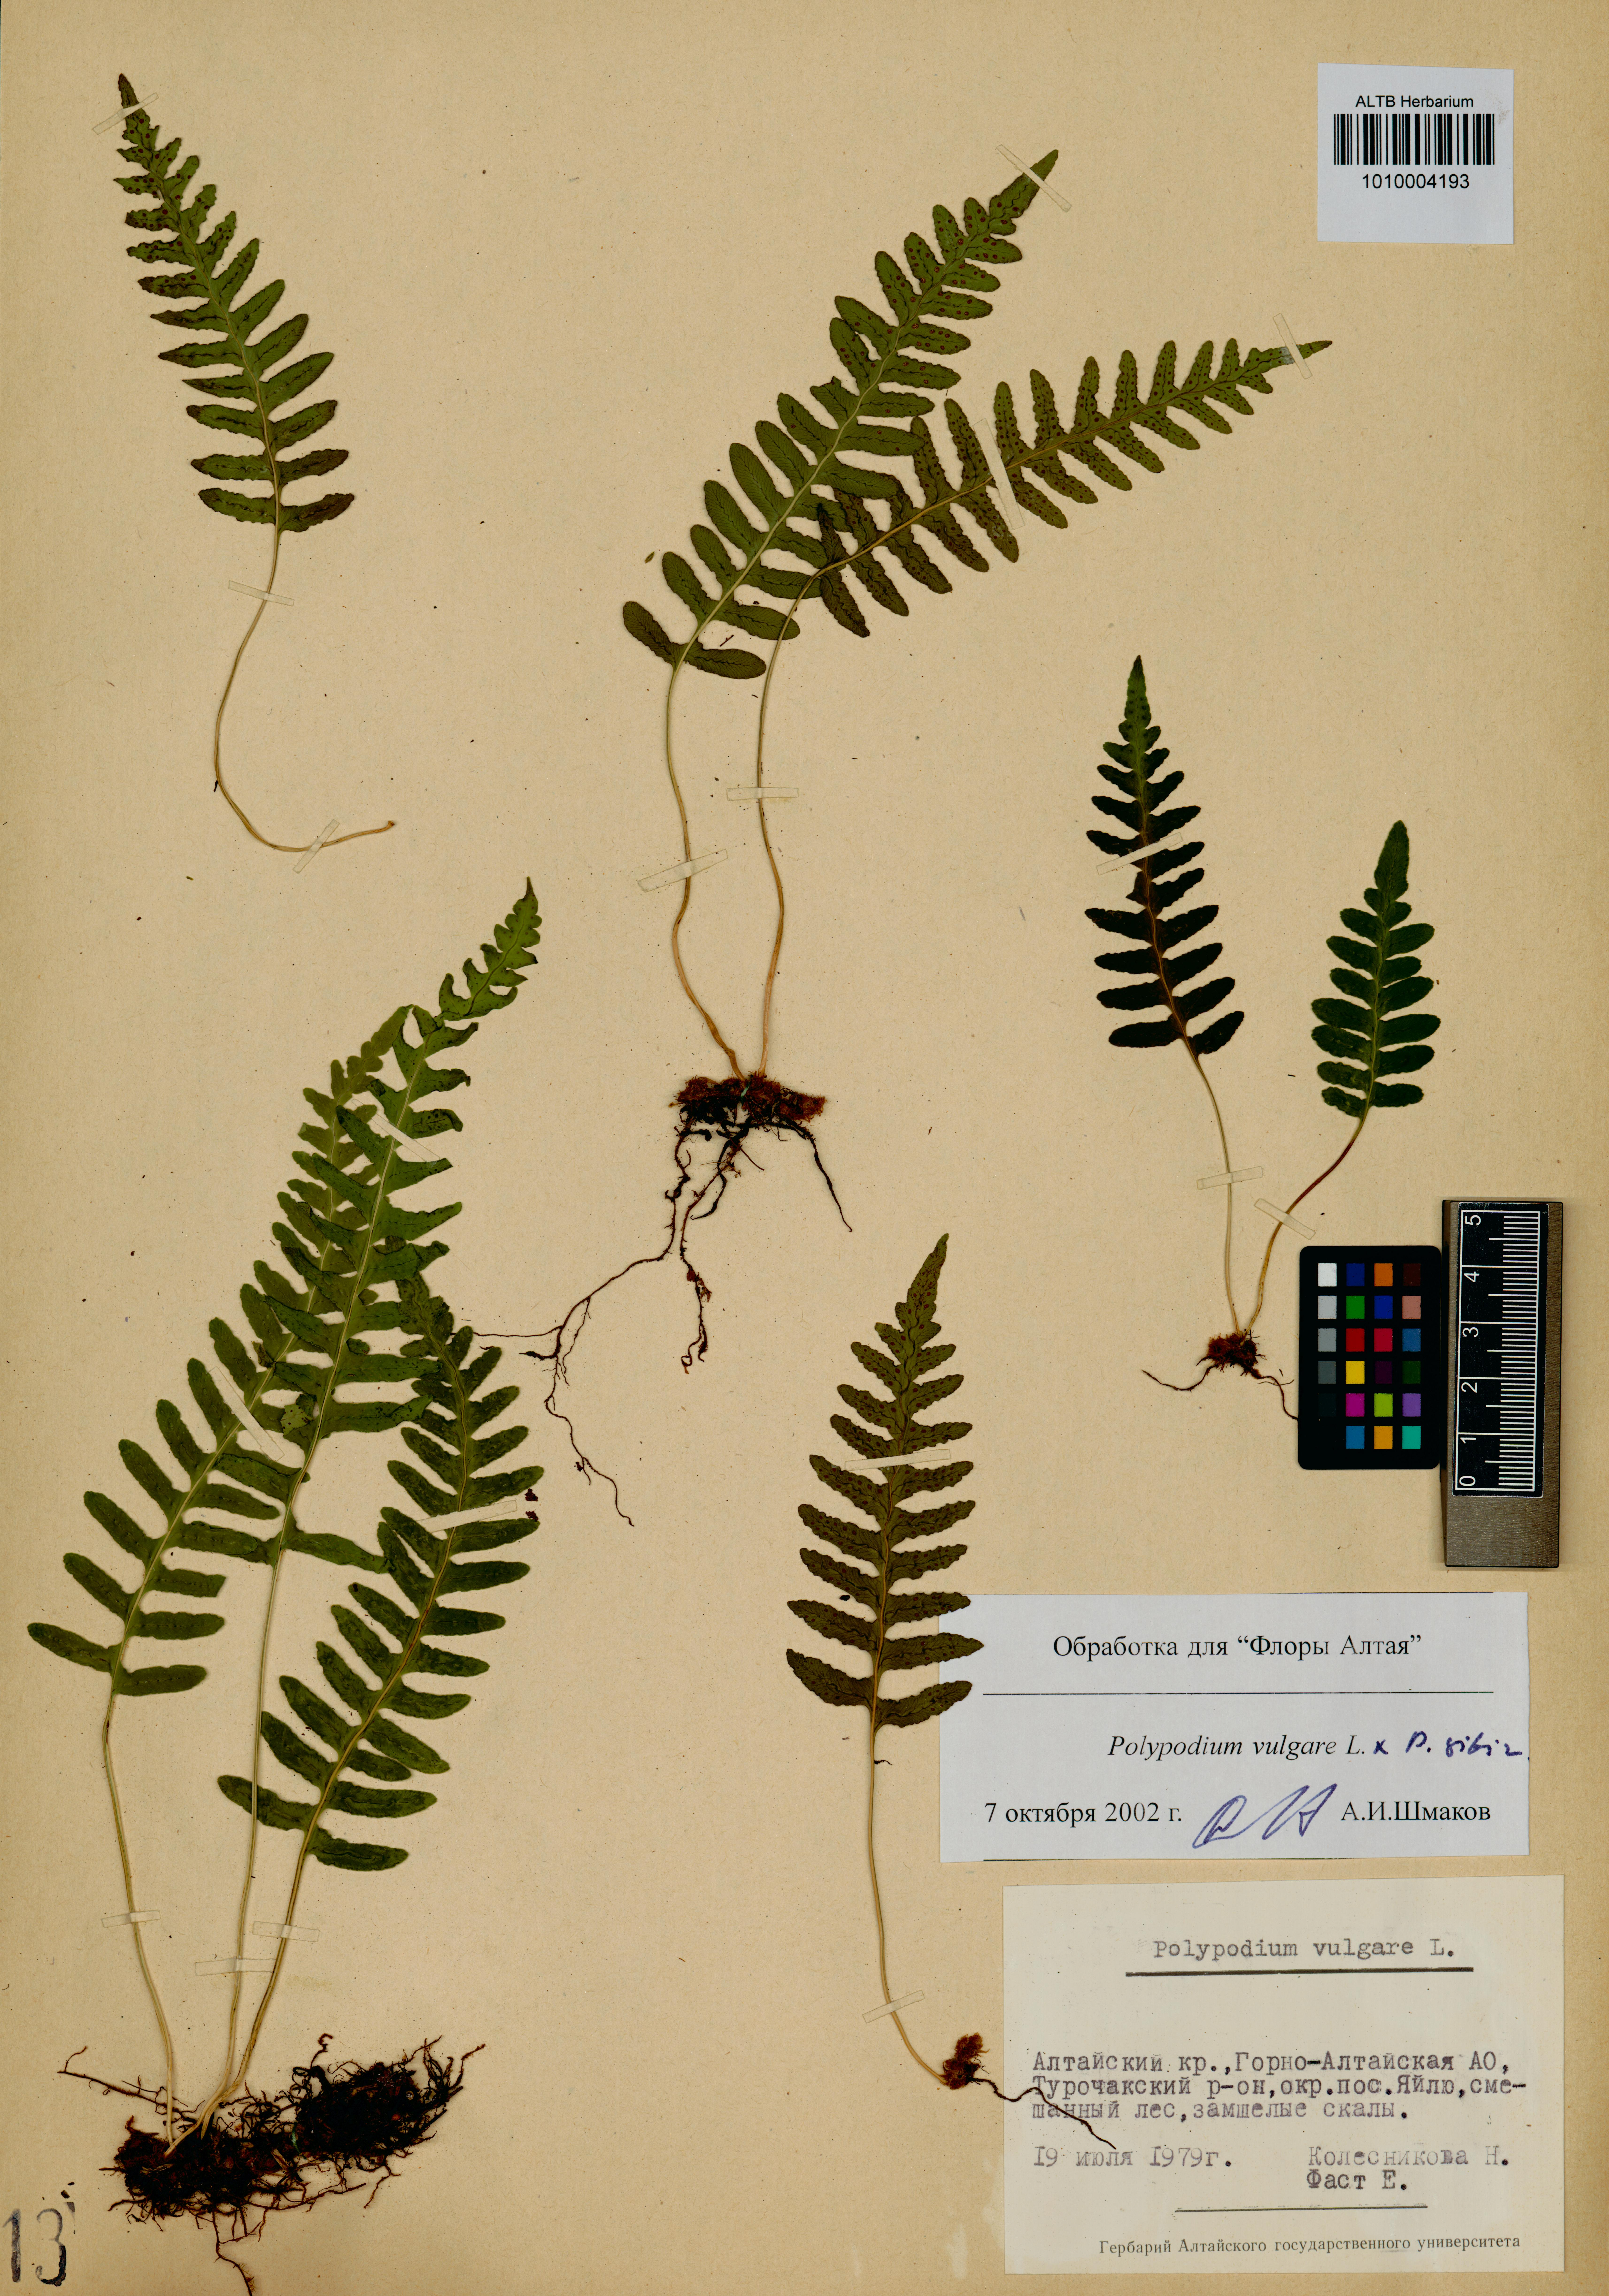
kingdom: Plantae
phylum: Tracheophyta
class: Polypodiopsida
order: Polypodiales
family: Polypodiaceae
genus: Polypodium
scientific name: Polypodium vulgare
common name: Common polypody
